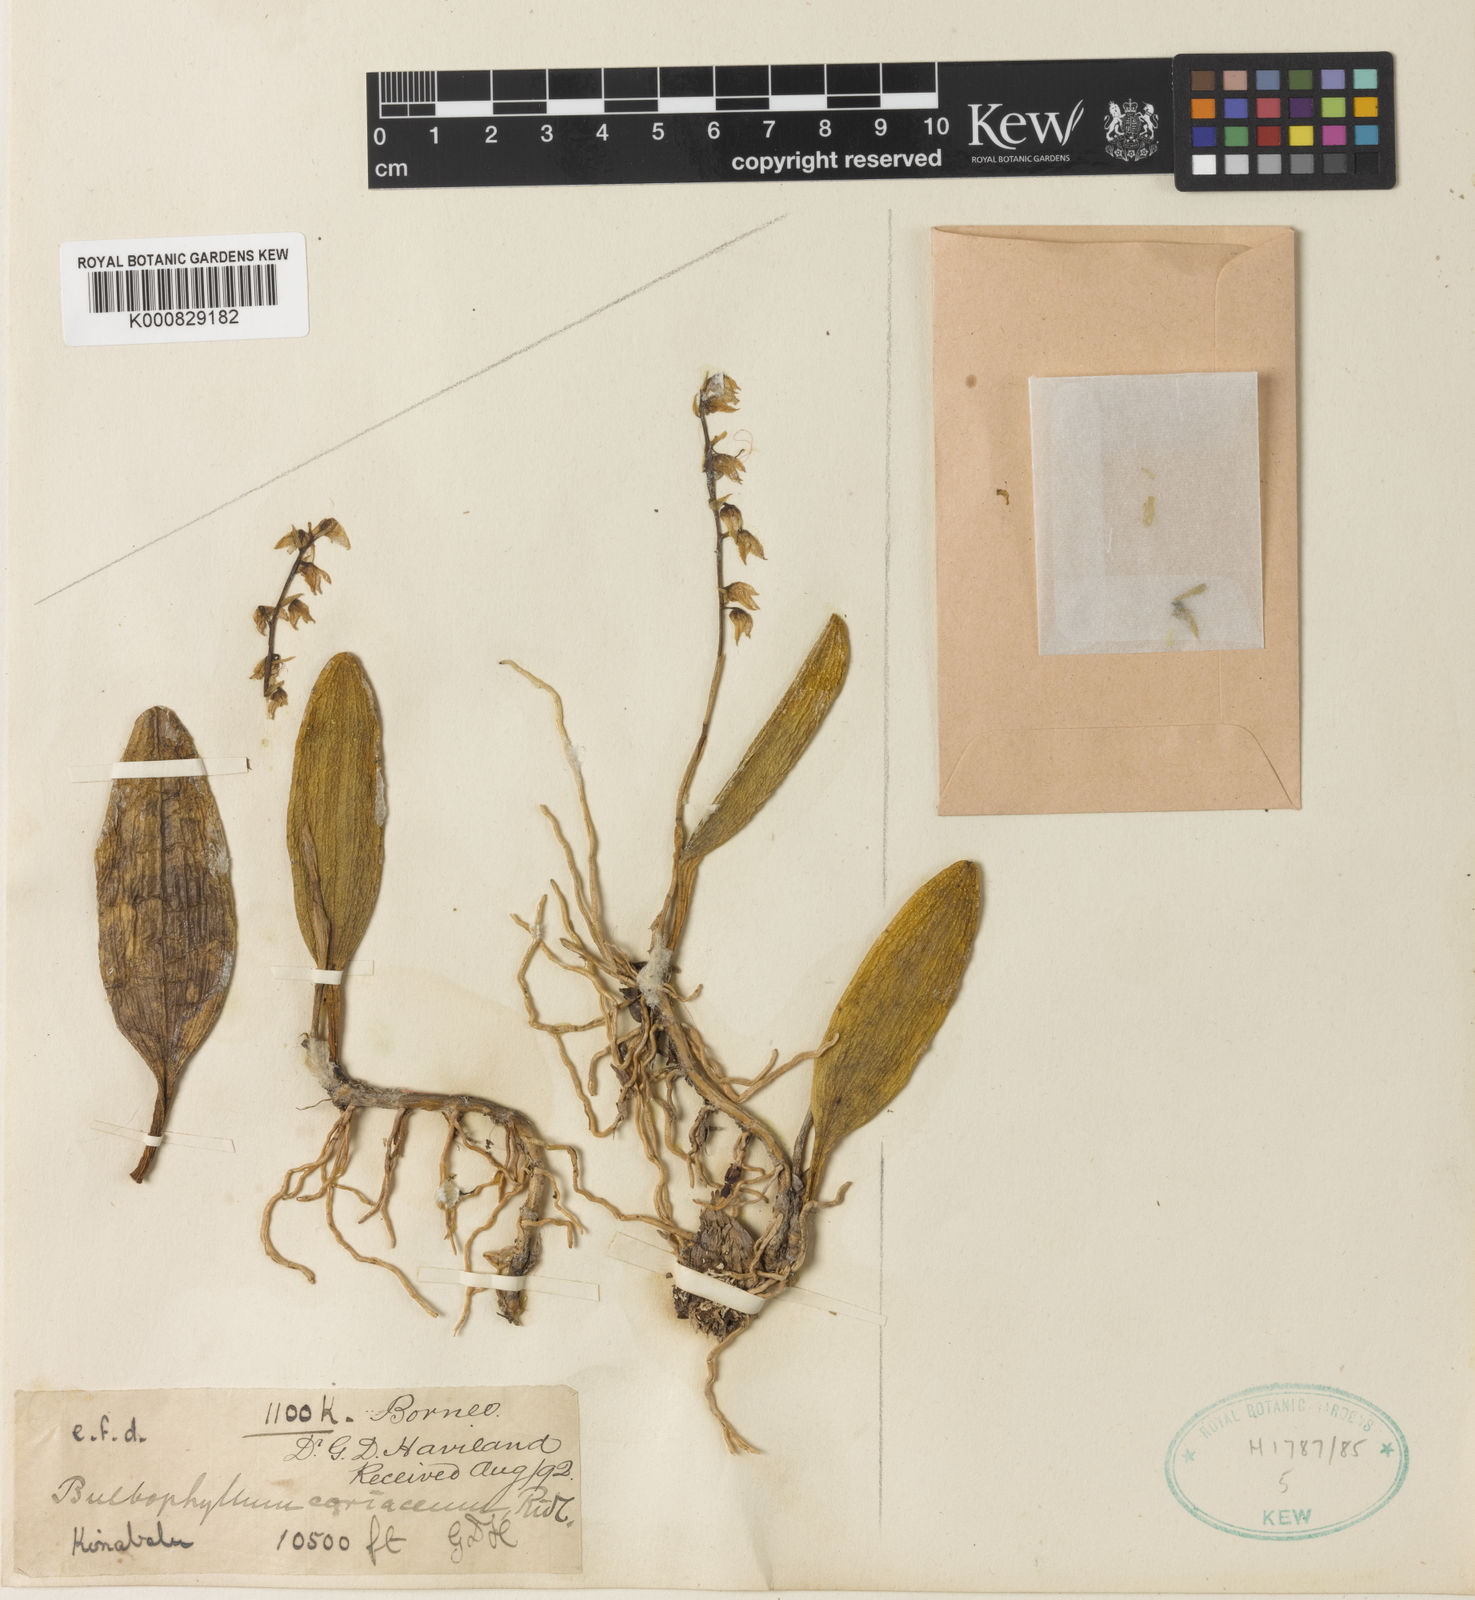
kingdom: Plantae
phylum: Tracheophyta
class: Liliopsida
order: Asparagales
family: Orchidaceae
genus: Bulbophyllum
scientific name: Bulbophyllum
